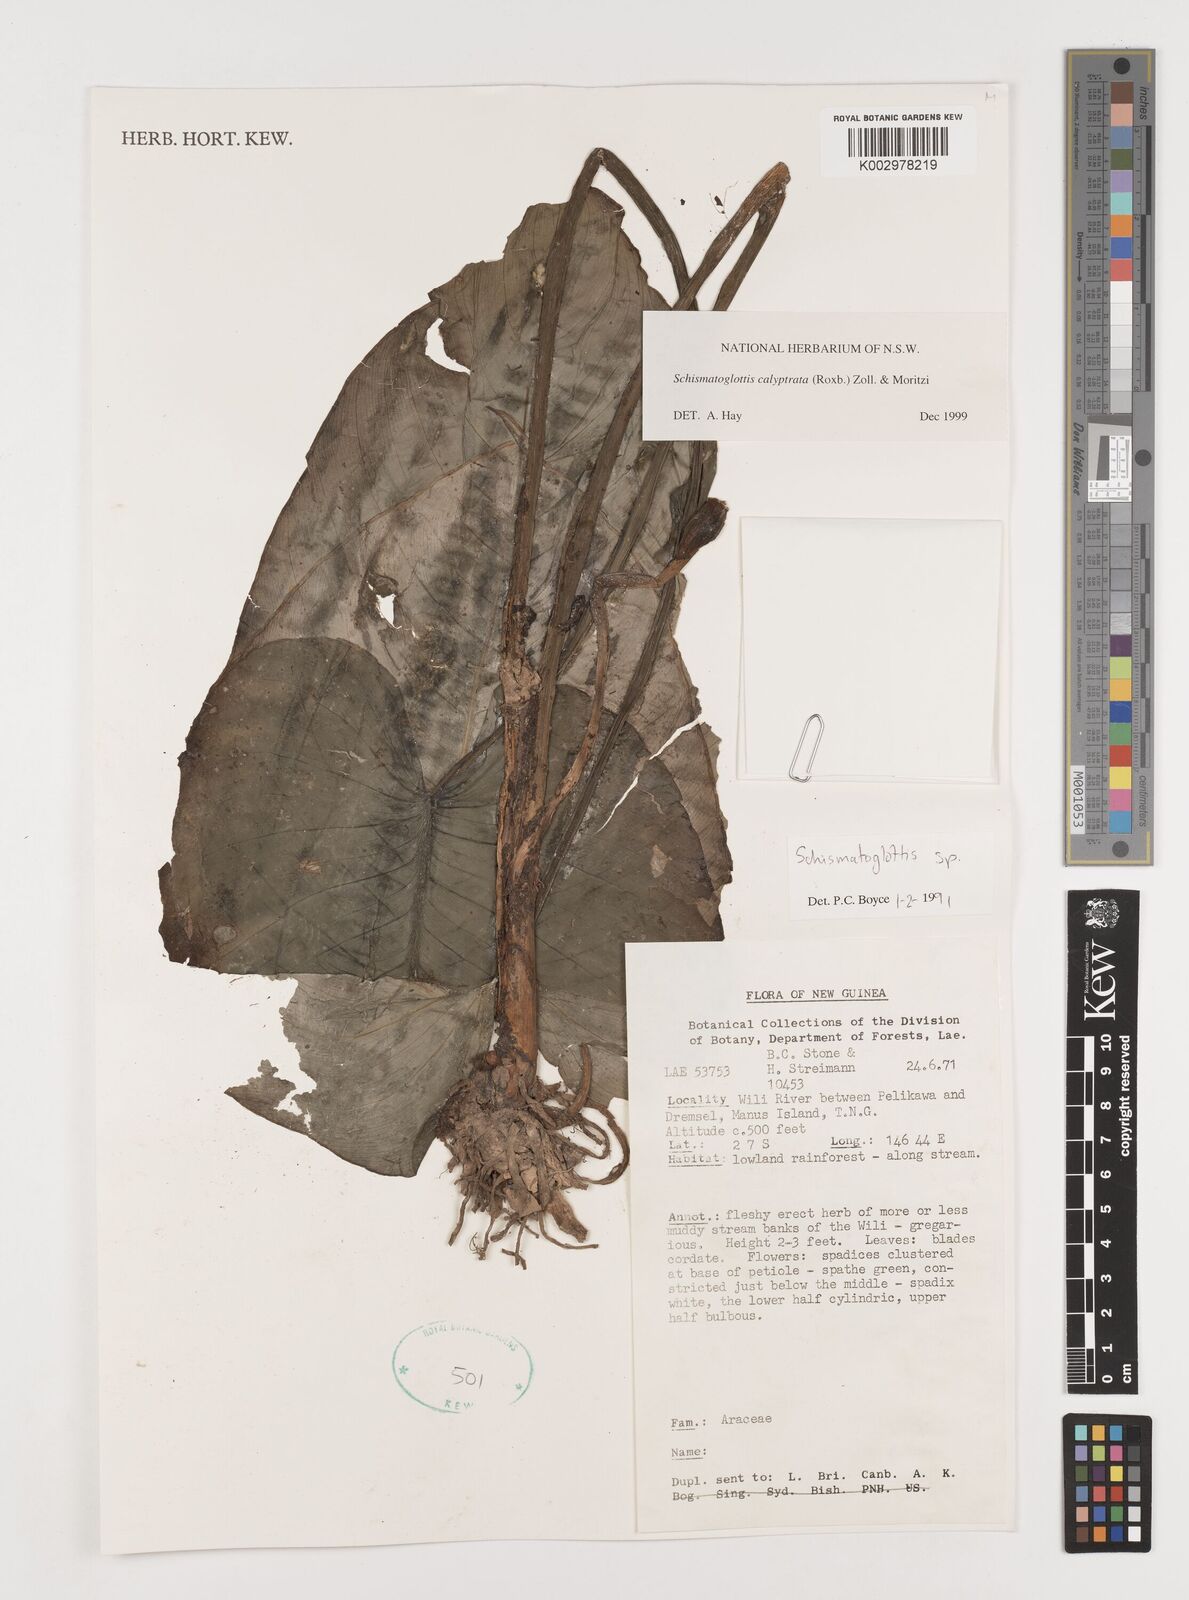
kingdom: Plantae
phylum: Tracheophyta
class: Liliopsida
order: Alismatales
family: Araceae
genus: Schismatoglottis
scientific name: Schismatoglottis calyptrata
